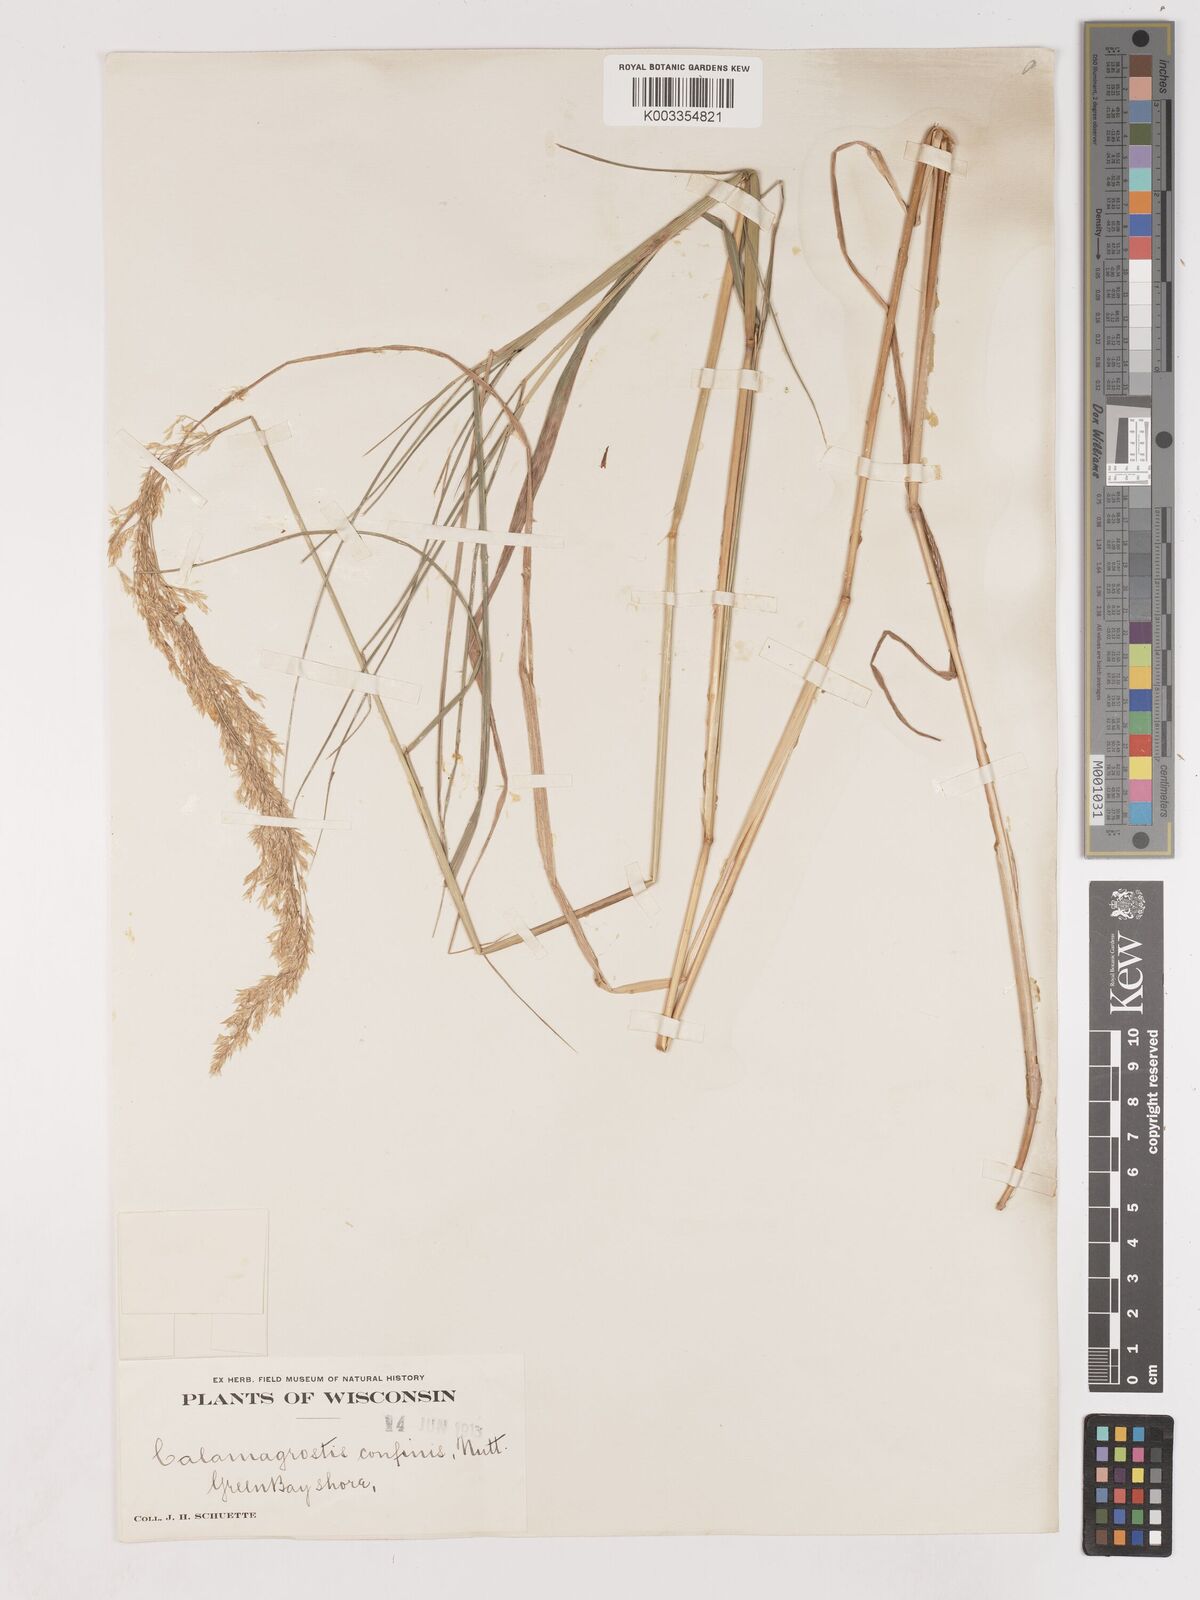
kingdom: Plantae
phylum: Tracheophyta
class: Liliopsida
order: Poales
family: Poaceae
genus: Calamagrostis
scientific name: Calamagrostis
